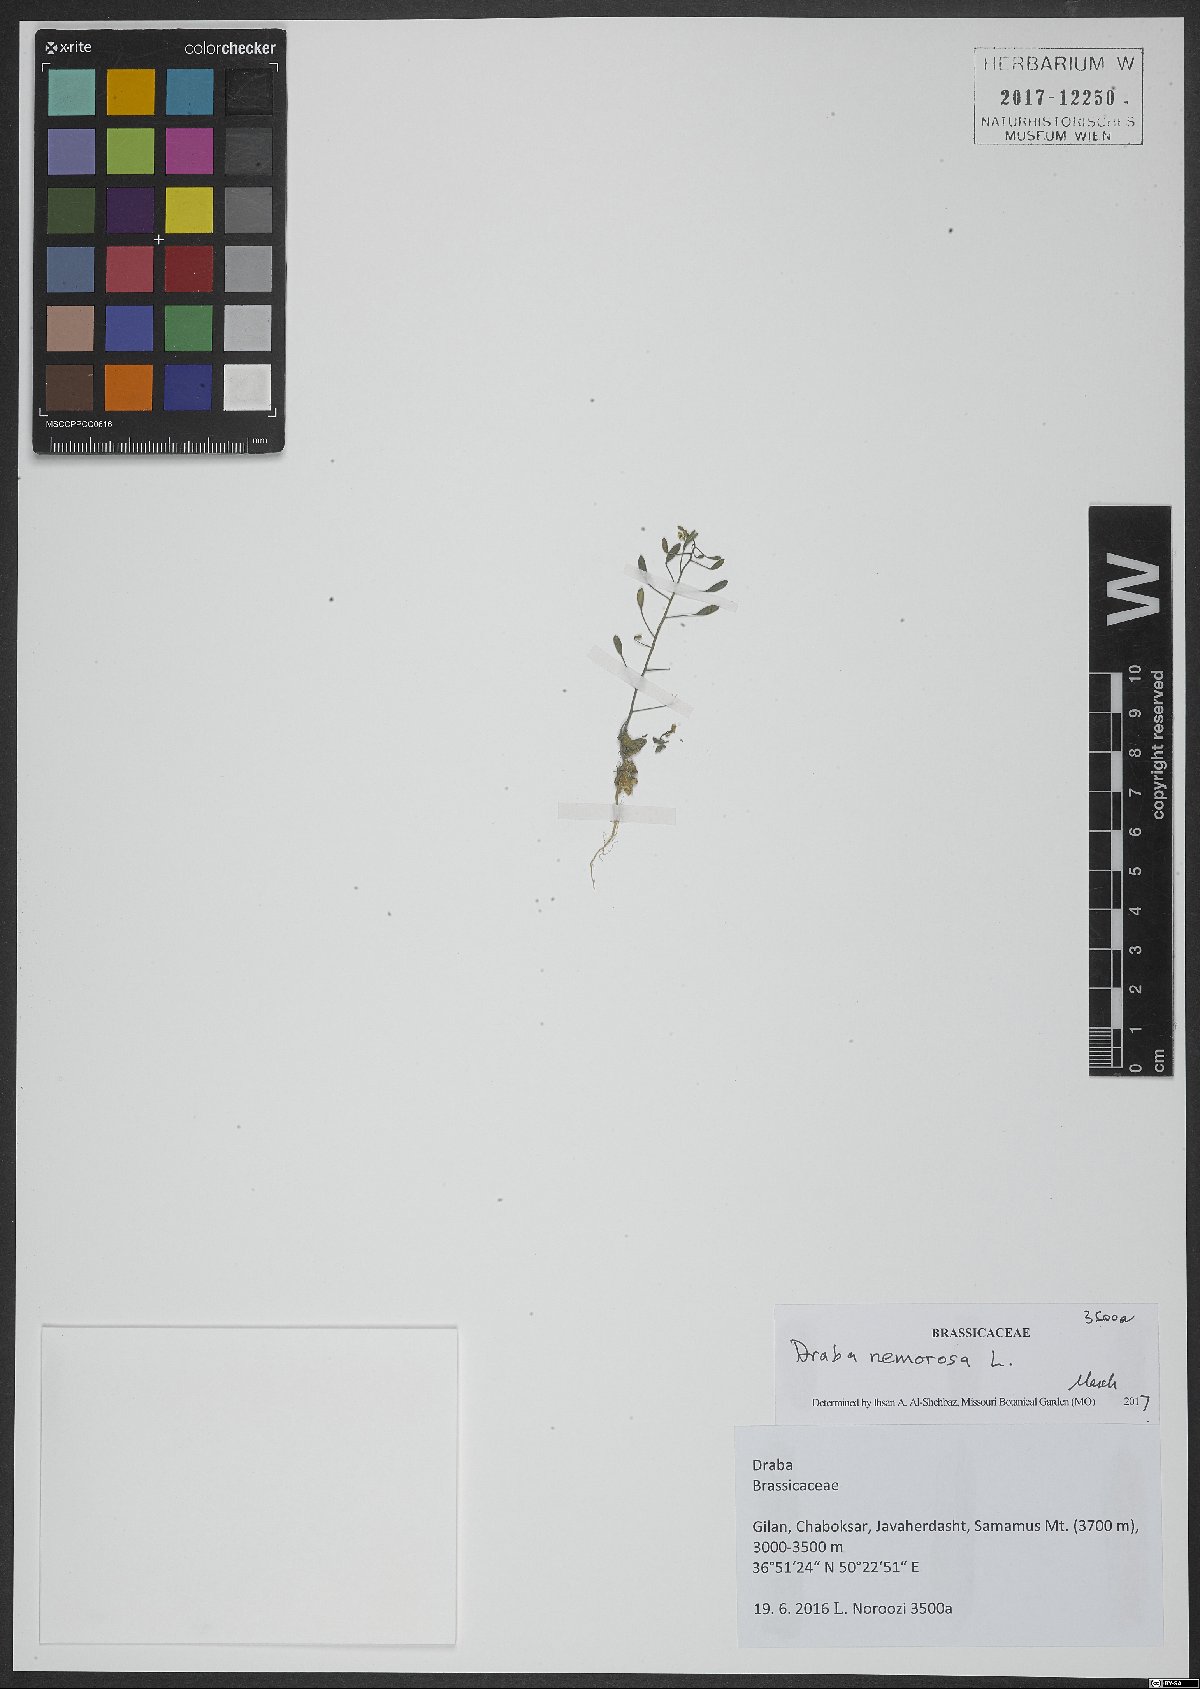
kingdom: Plantae
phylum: Tracheophyta
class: Magnoliopsida
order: Brassicales
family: Brassicaceae
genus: Draba
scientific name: Draba nemorosa
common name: Wood whitlow-grass
